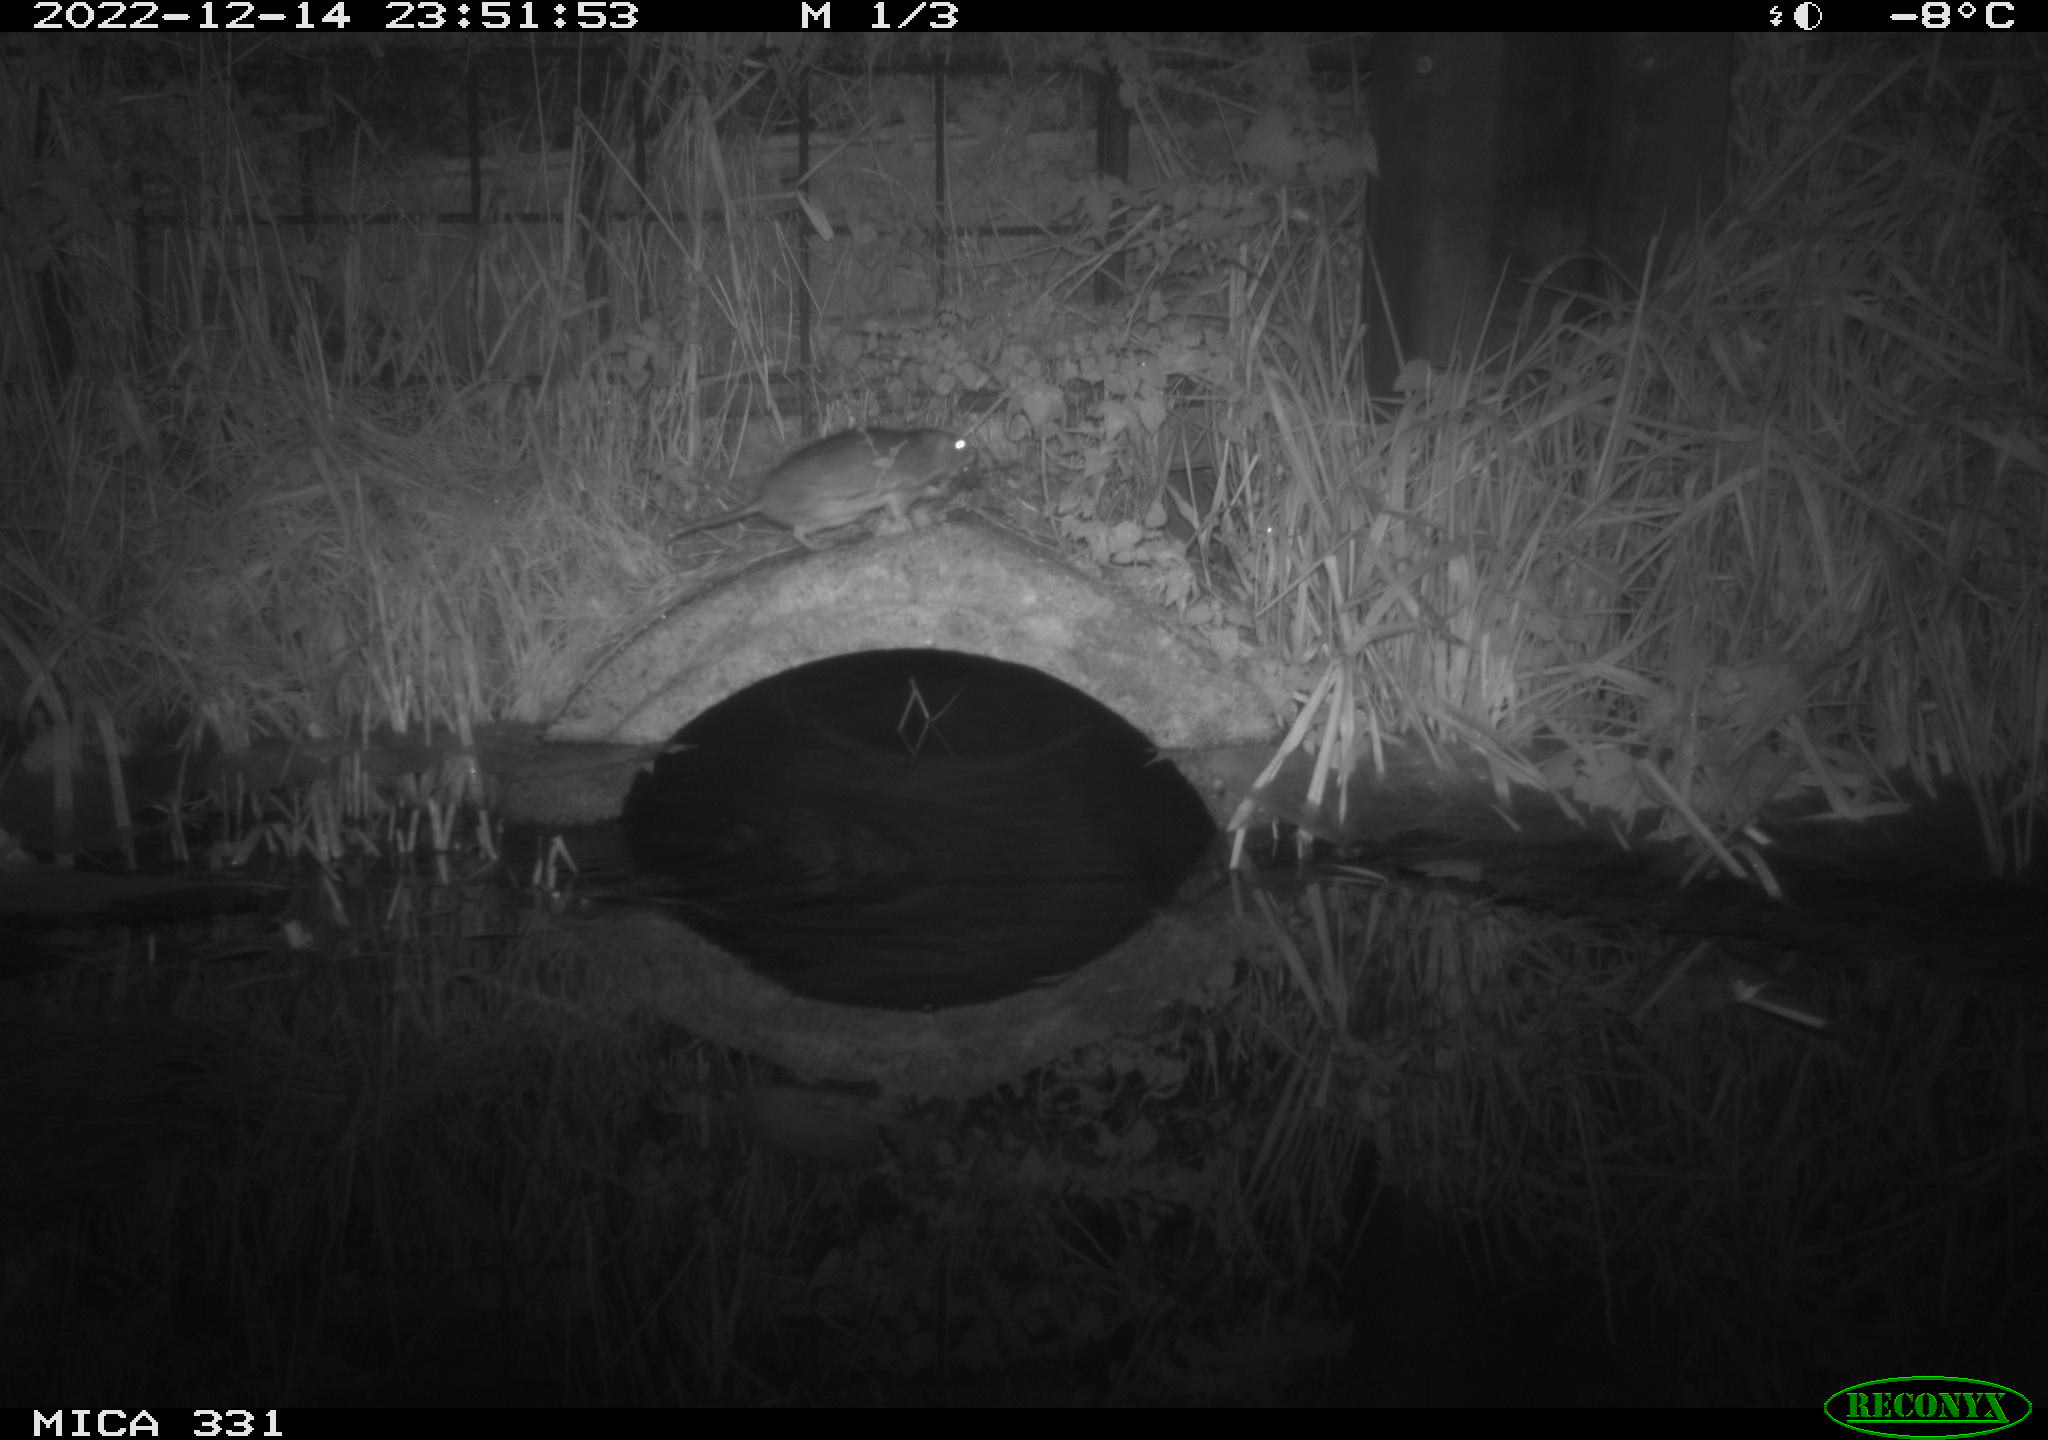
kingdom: Animalia
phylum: Chordata
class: Mammalia
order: Rodentia
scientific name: Rodentia
